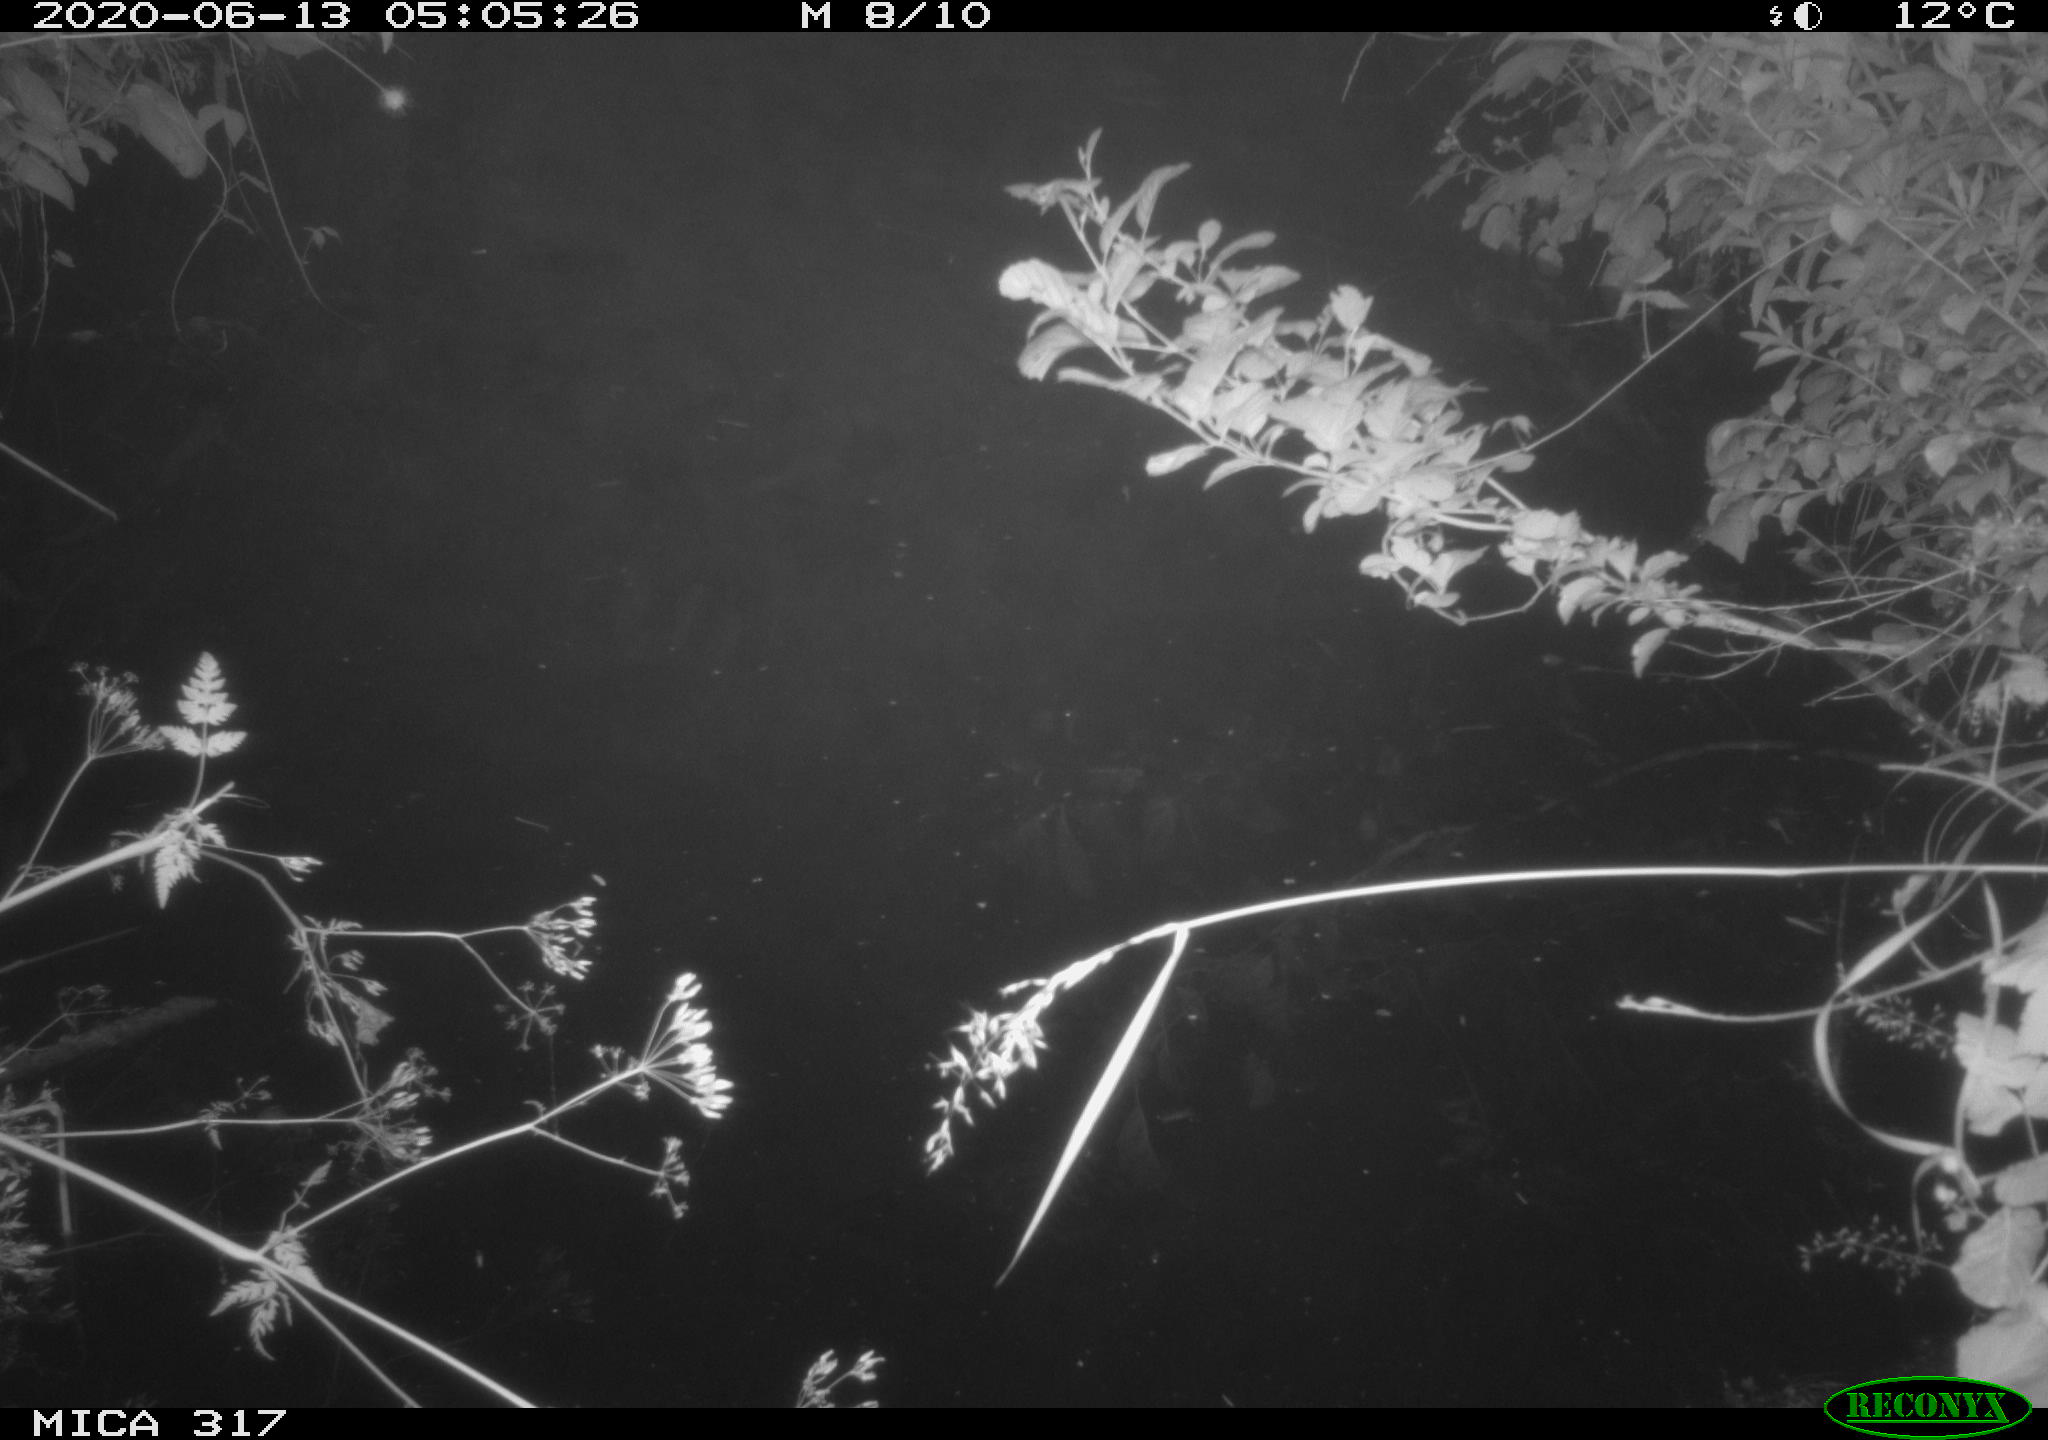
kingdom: Animalia
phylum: Chordata
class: Aves
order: Anseriformes
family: Anatidae
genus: Anas
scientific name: Anas platyrhynchos
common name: Mallard
